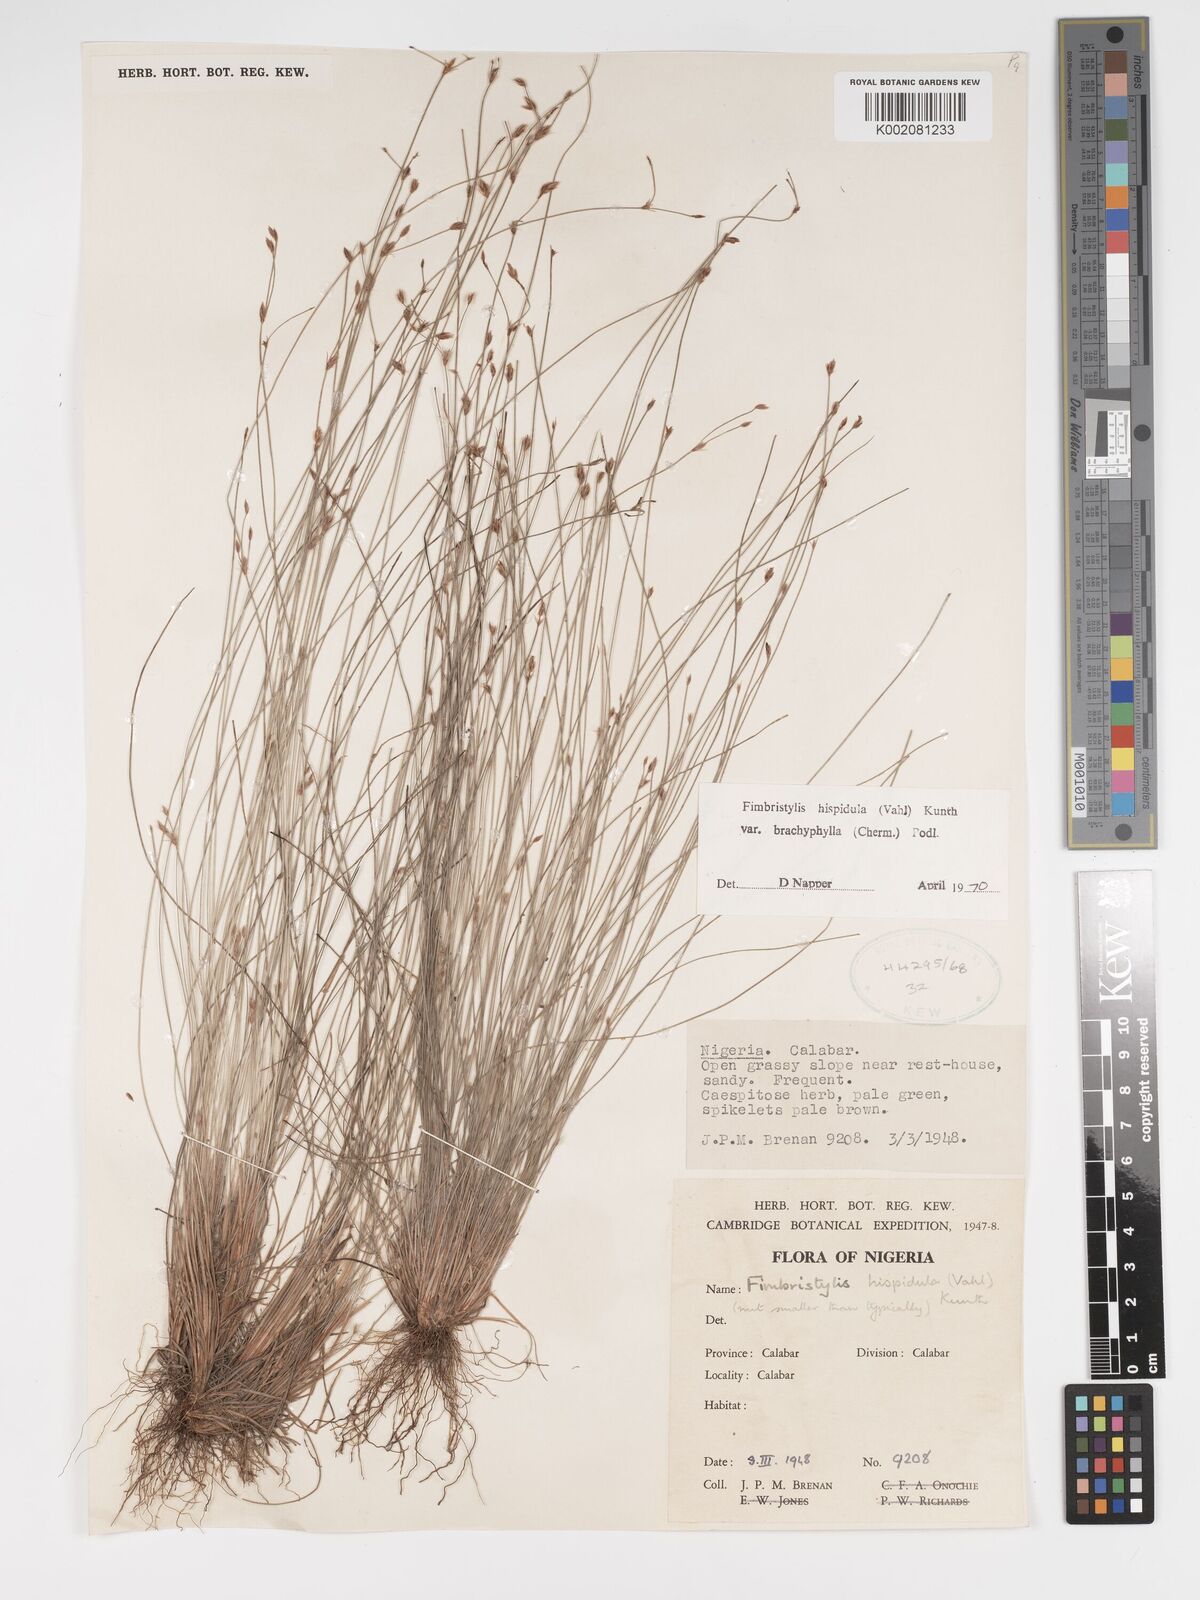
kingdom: Plantae
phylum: Tracheophyta
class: Liliopsida
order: Poales
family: Cyperaceae
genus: Bulbostylis
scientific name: Bulbostylis hispidula
